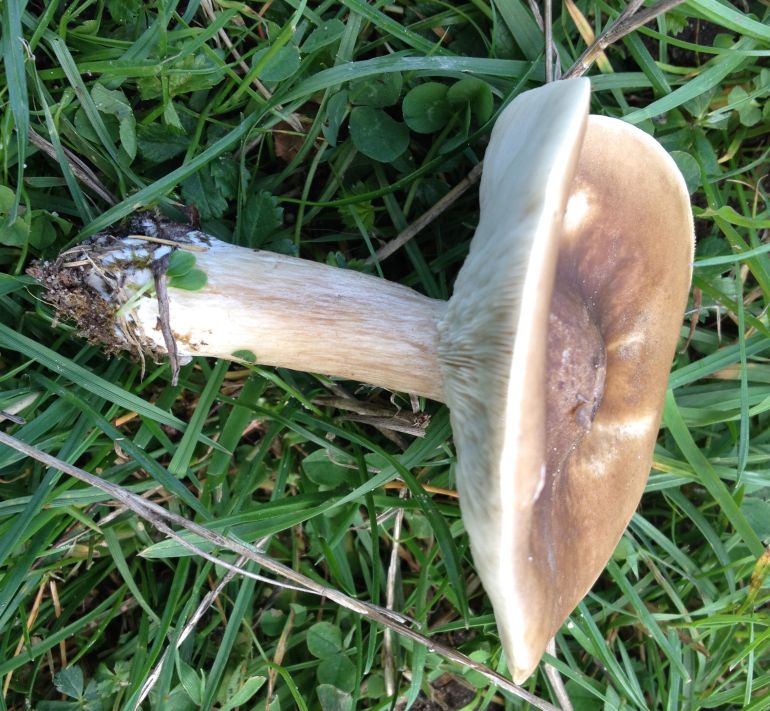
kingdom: Fungi
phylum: Basidiomycota
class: Agaricomycetes
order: Agaricales
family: Tricholomataceae
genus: Melanoleuca
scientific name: Melanoleuca grammopodia
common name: stribestokket munkehat
